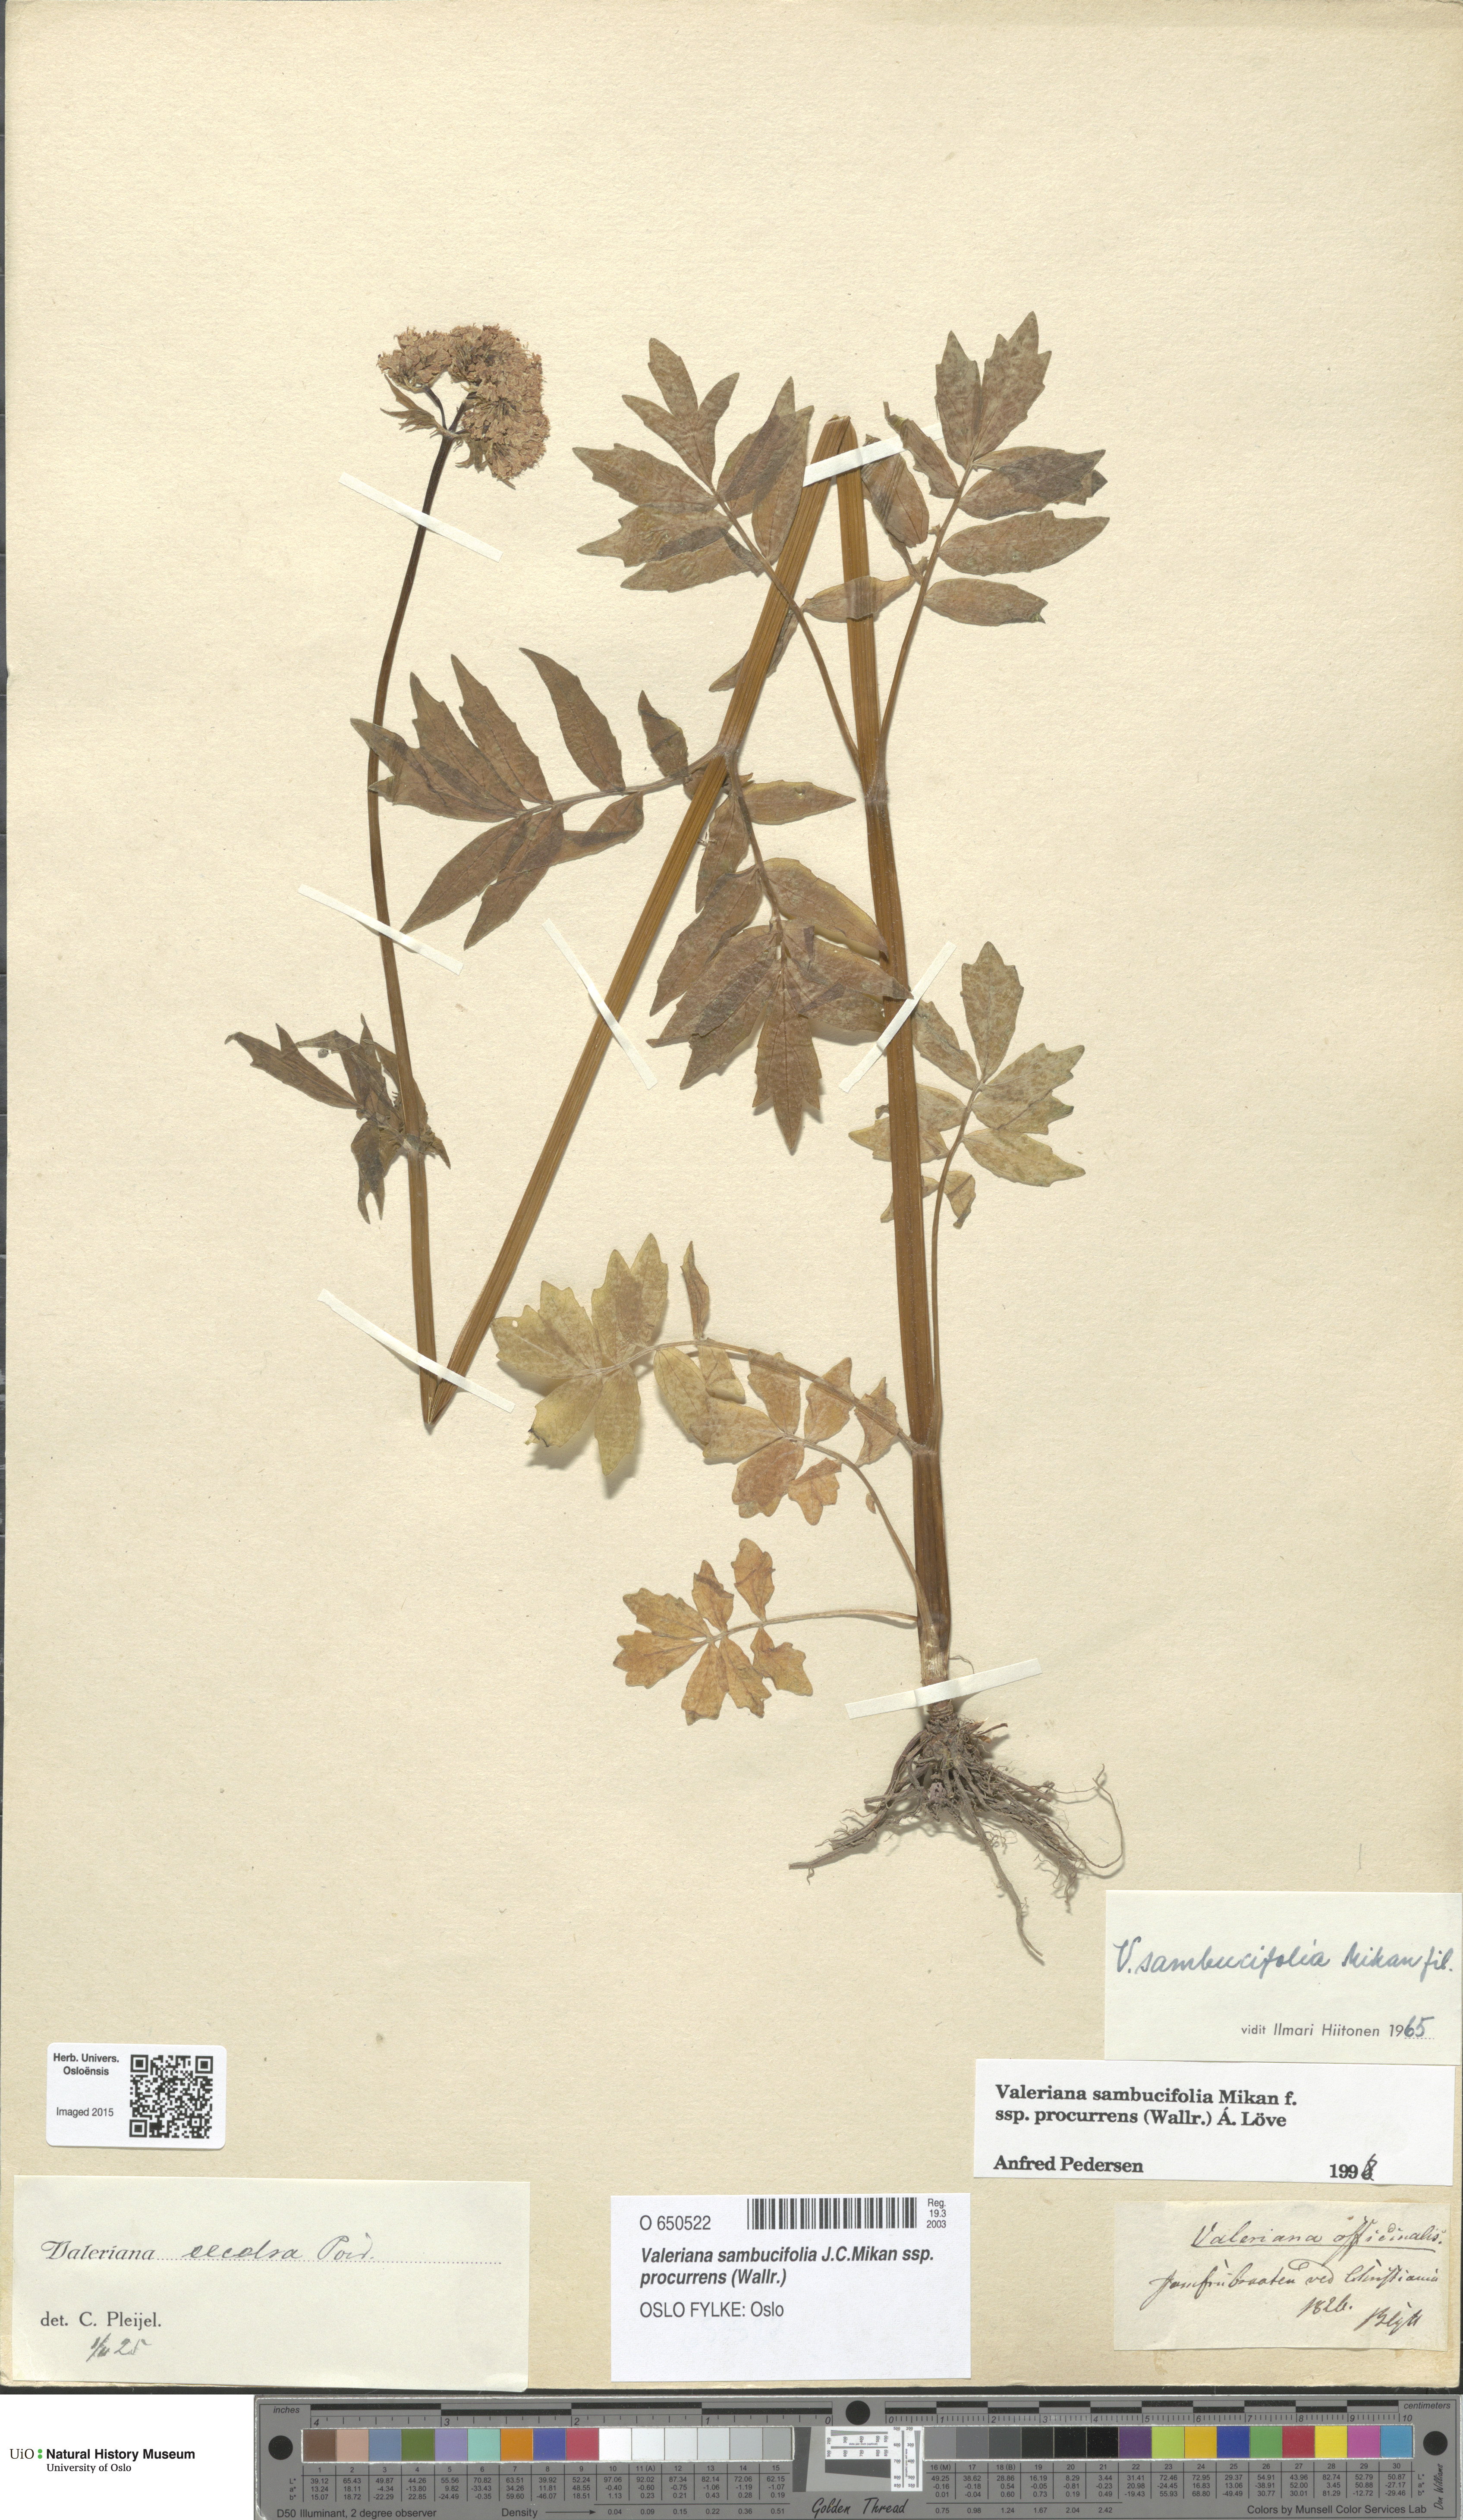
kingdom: Plantae
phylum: Tracheophyta
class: Magnoliopsida
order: Dipsacales
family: Caprifoliaceae
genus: Valeriana
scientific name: Valeriana excelsa
